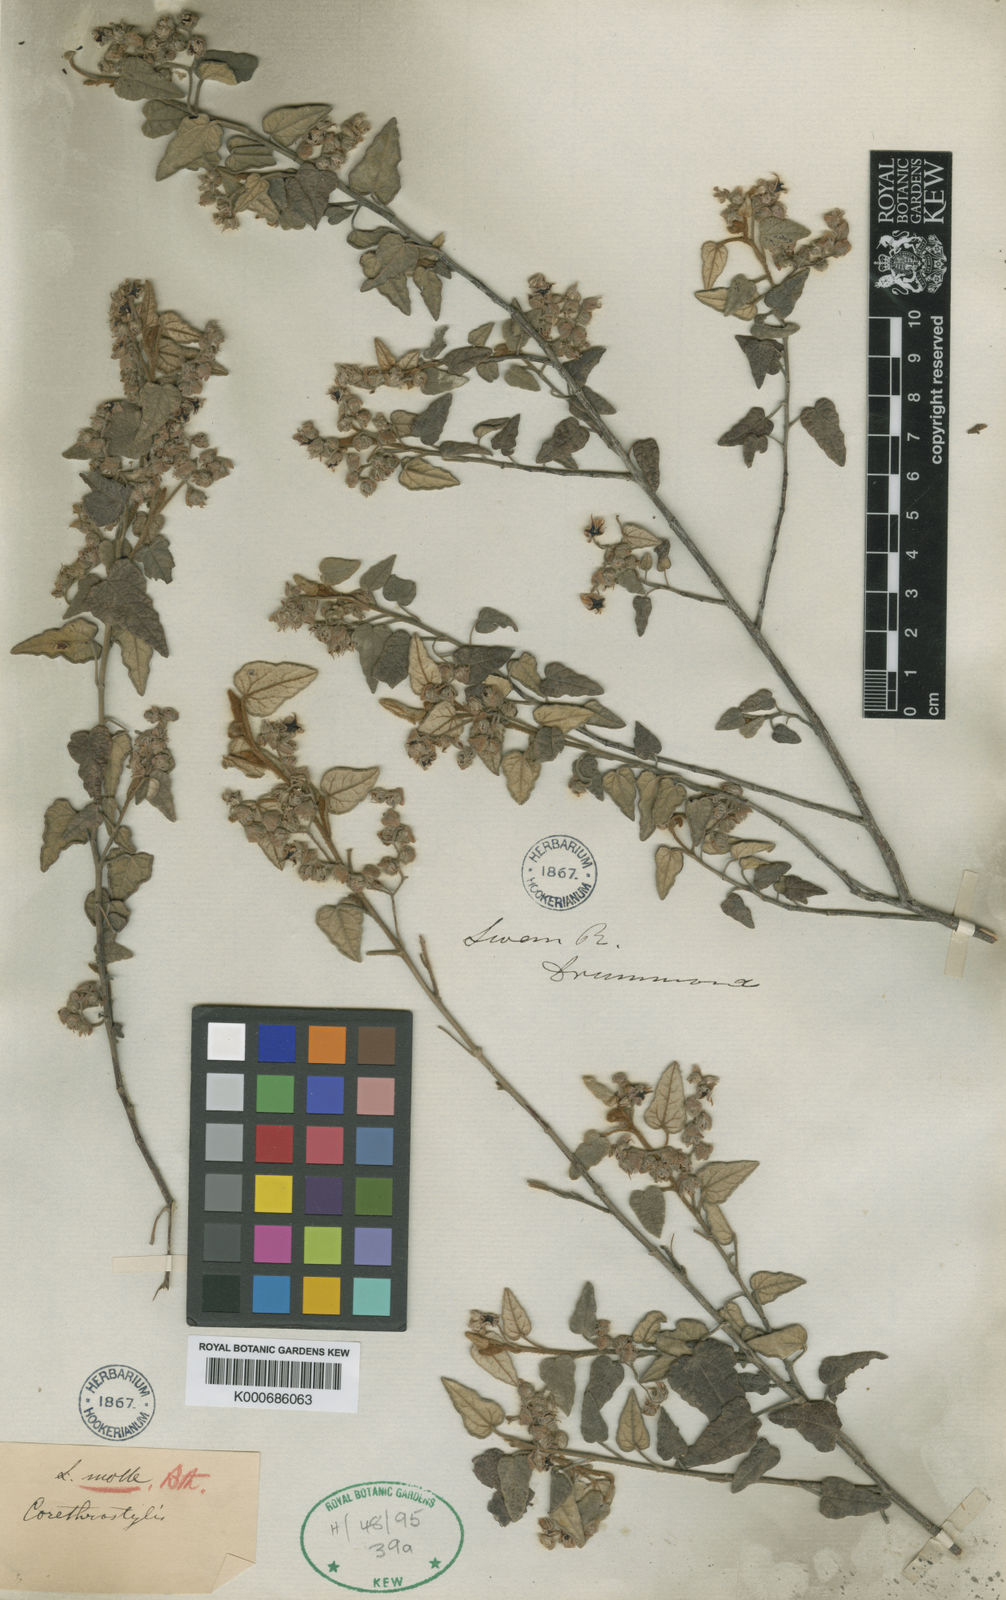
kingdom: Plantae
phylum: Tracheophyta
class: Magnoliopsida
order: Malvales
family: Malvaceae
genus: Lasiopetalum
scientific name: Lasiopetalum molle
